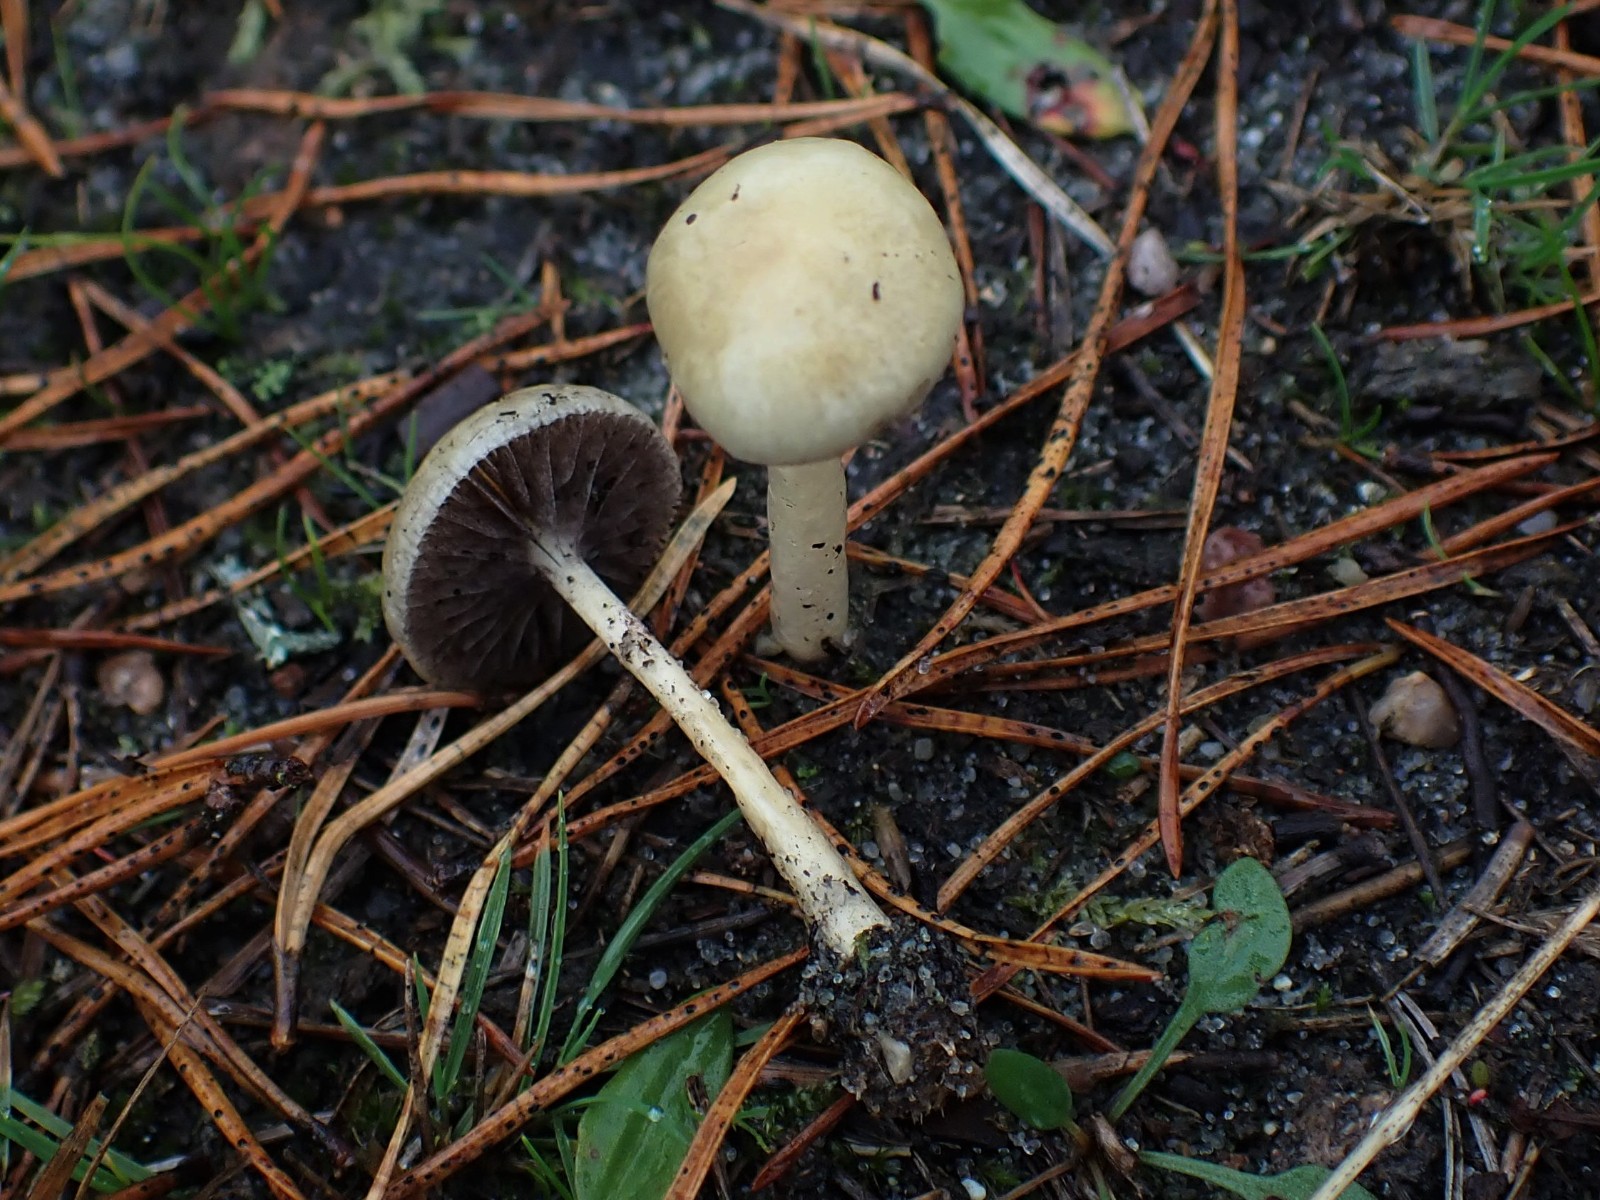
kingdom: Fungi
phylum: Basidiomycota
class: Agaricomycetes
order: Agaricales
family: Strophariaceae
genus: Protostropharia
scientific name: Protostropharia semiglobata
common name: halvkugleformet bredblad
